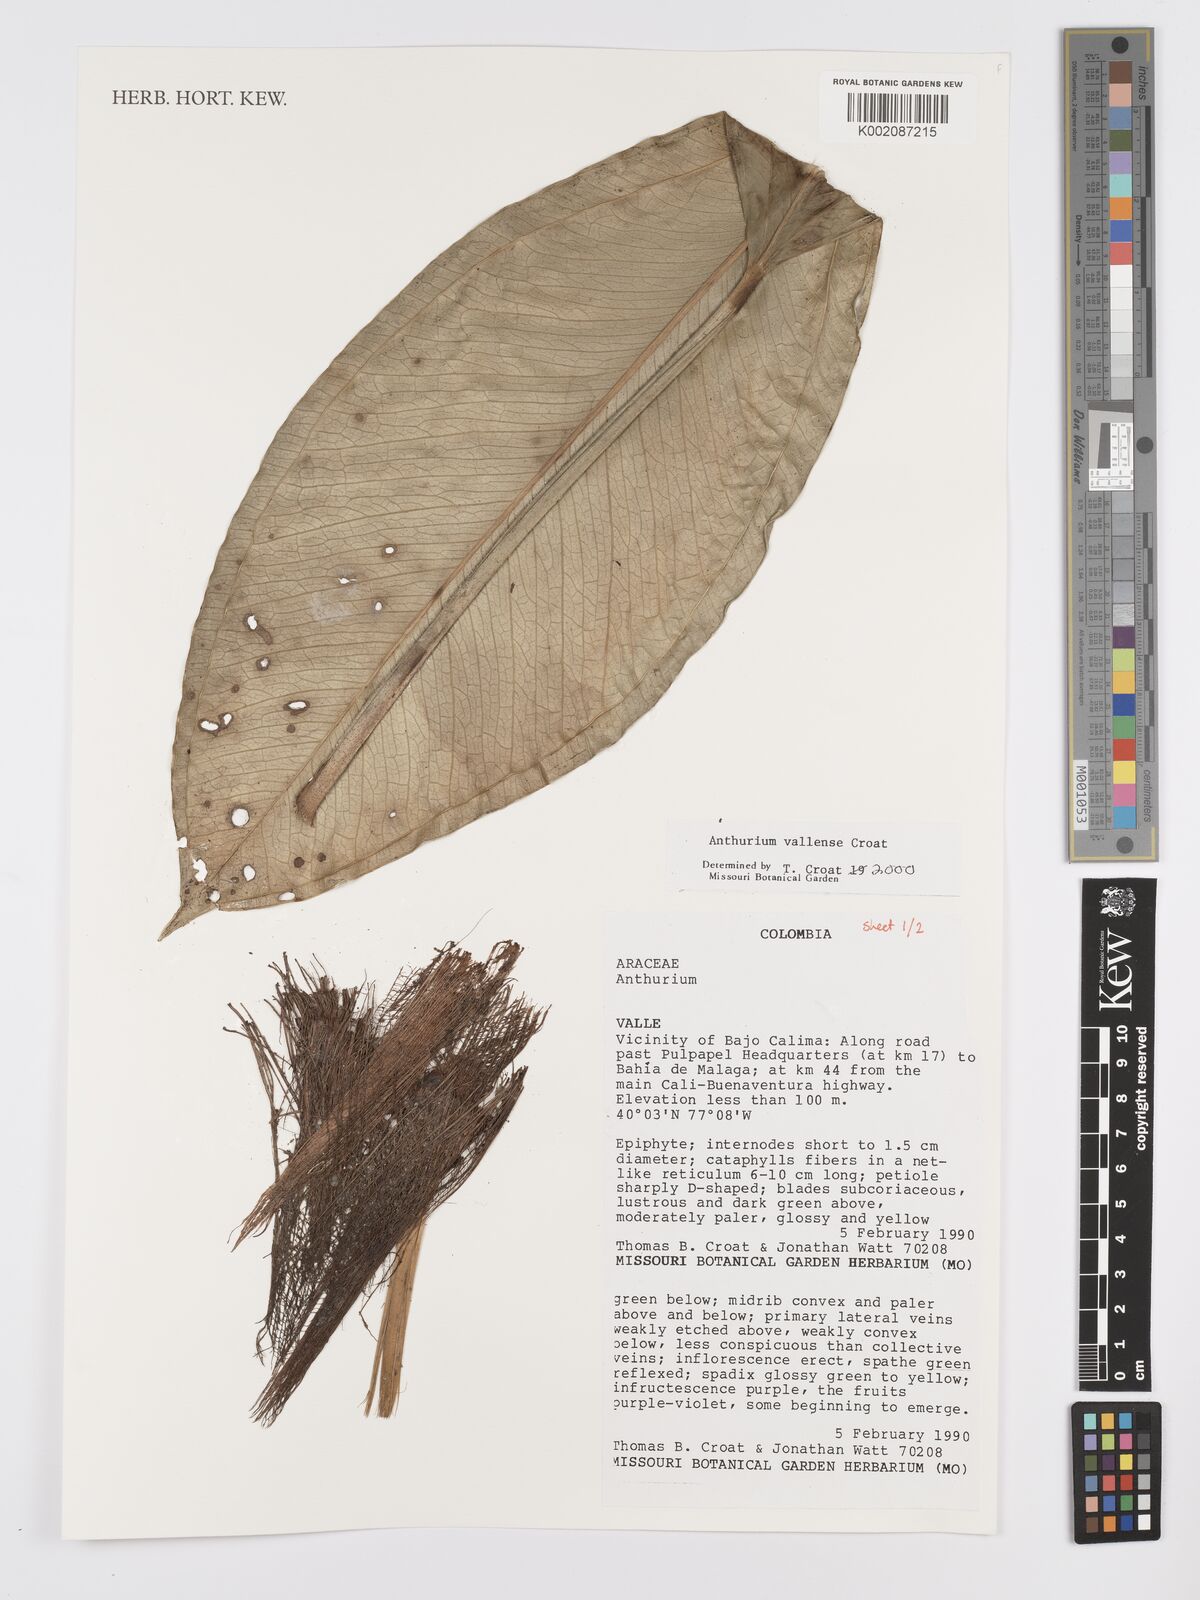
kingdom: Plantae
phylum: Tracheophyta
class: Liliopsida
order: Alismatales
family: Araceae
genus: Anthurium
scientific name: Anthurium vallense
